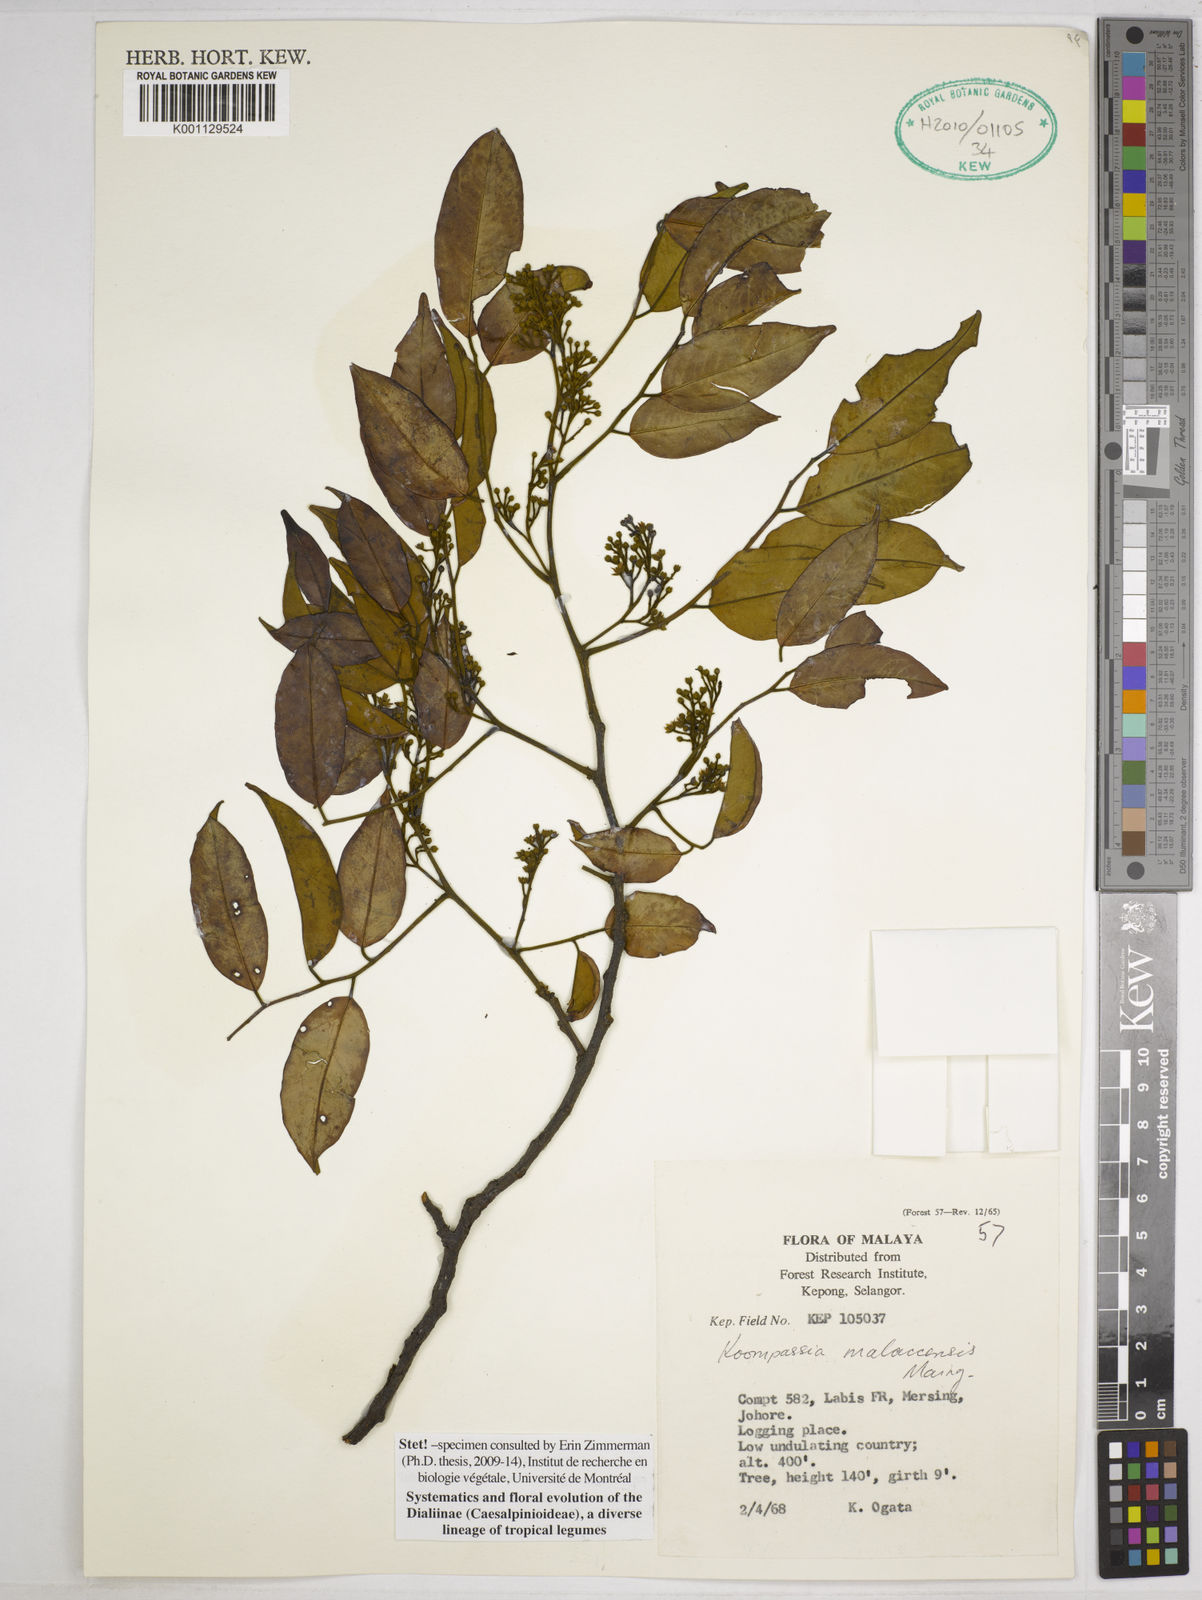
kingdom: Plantae
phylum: Tracheophyta
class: Magnoliopsida
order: Fabales
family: Fabaceae
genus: Koompassia
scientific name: Koompassia malaccensis
